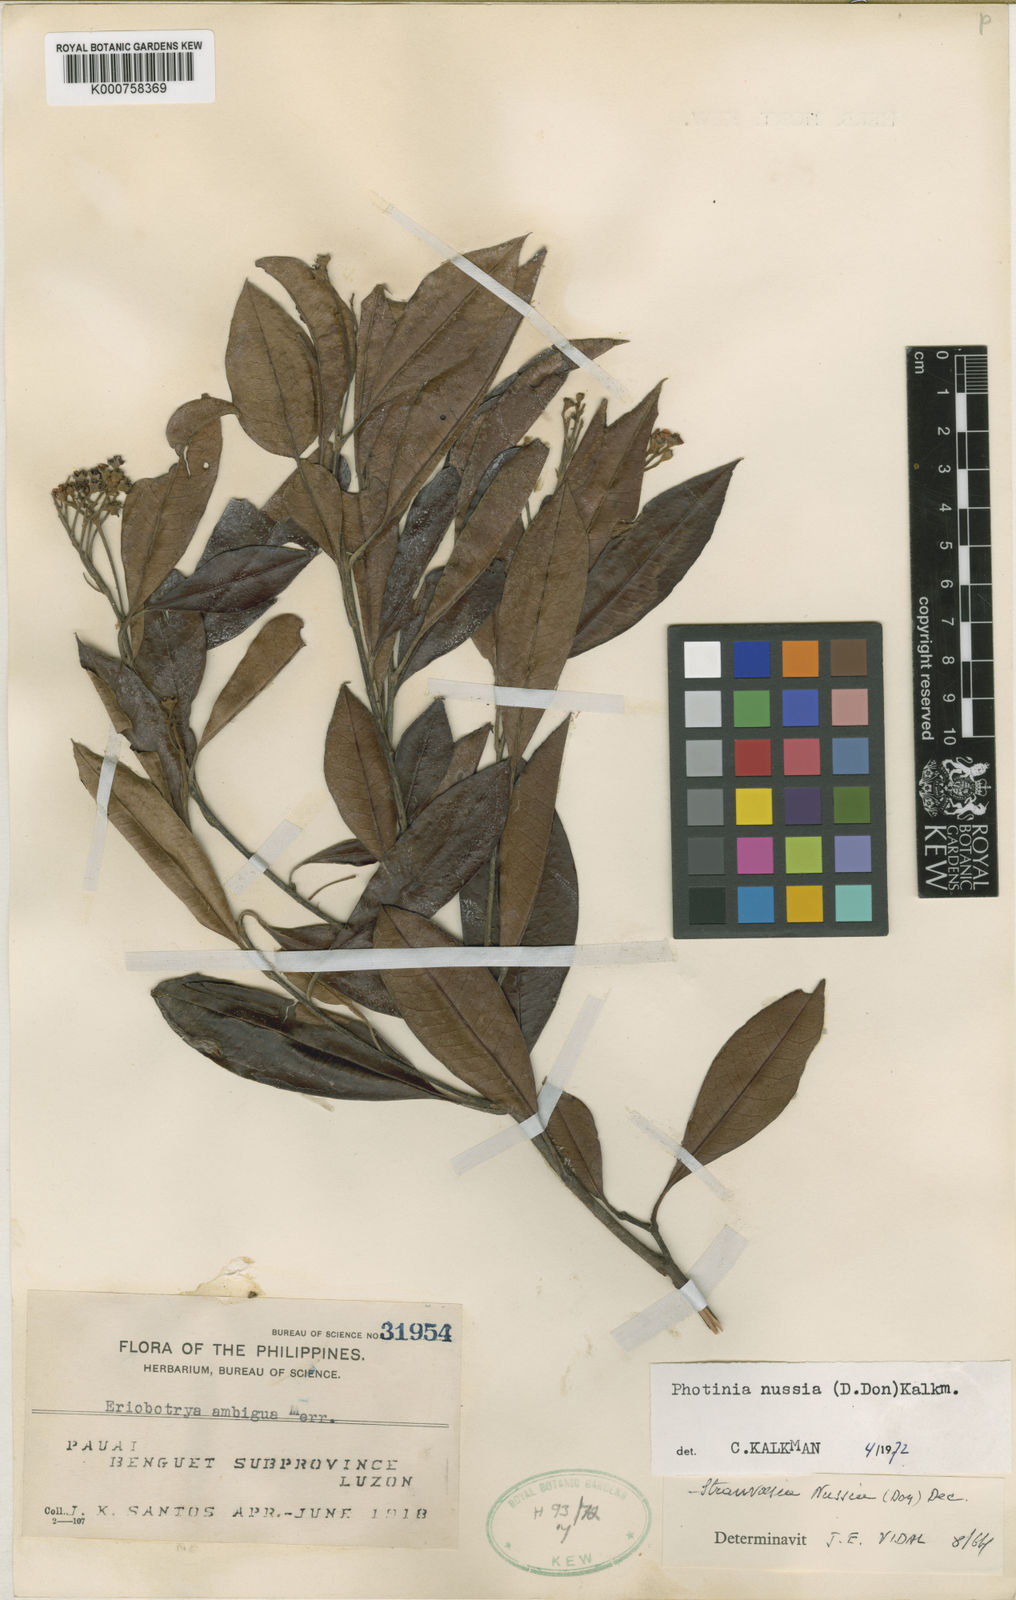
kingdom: Plantae
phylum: Tracheophyta
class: Magnoliopsida
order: Rosales
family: Rosaceae
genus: Stranvaesia
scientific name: Stranvaesia nussia
